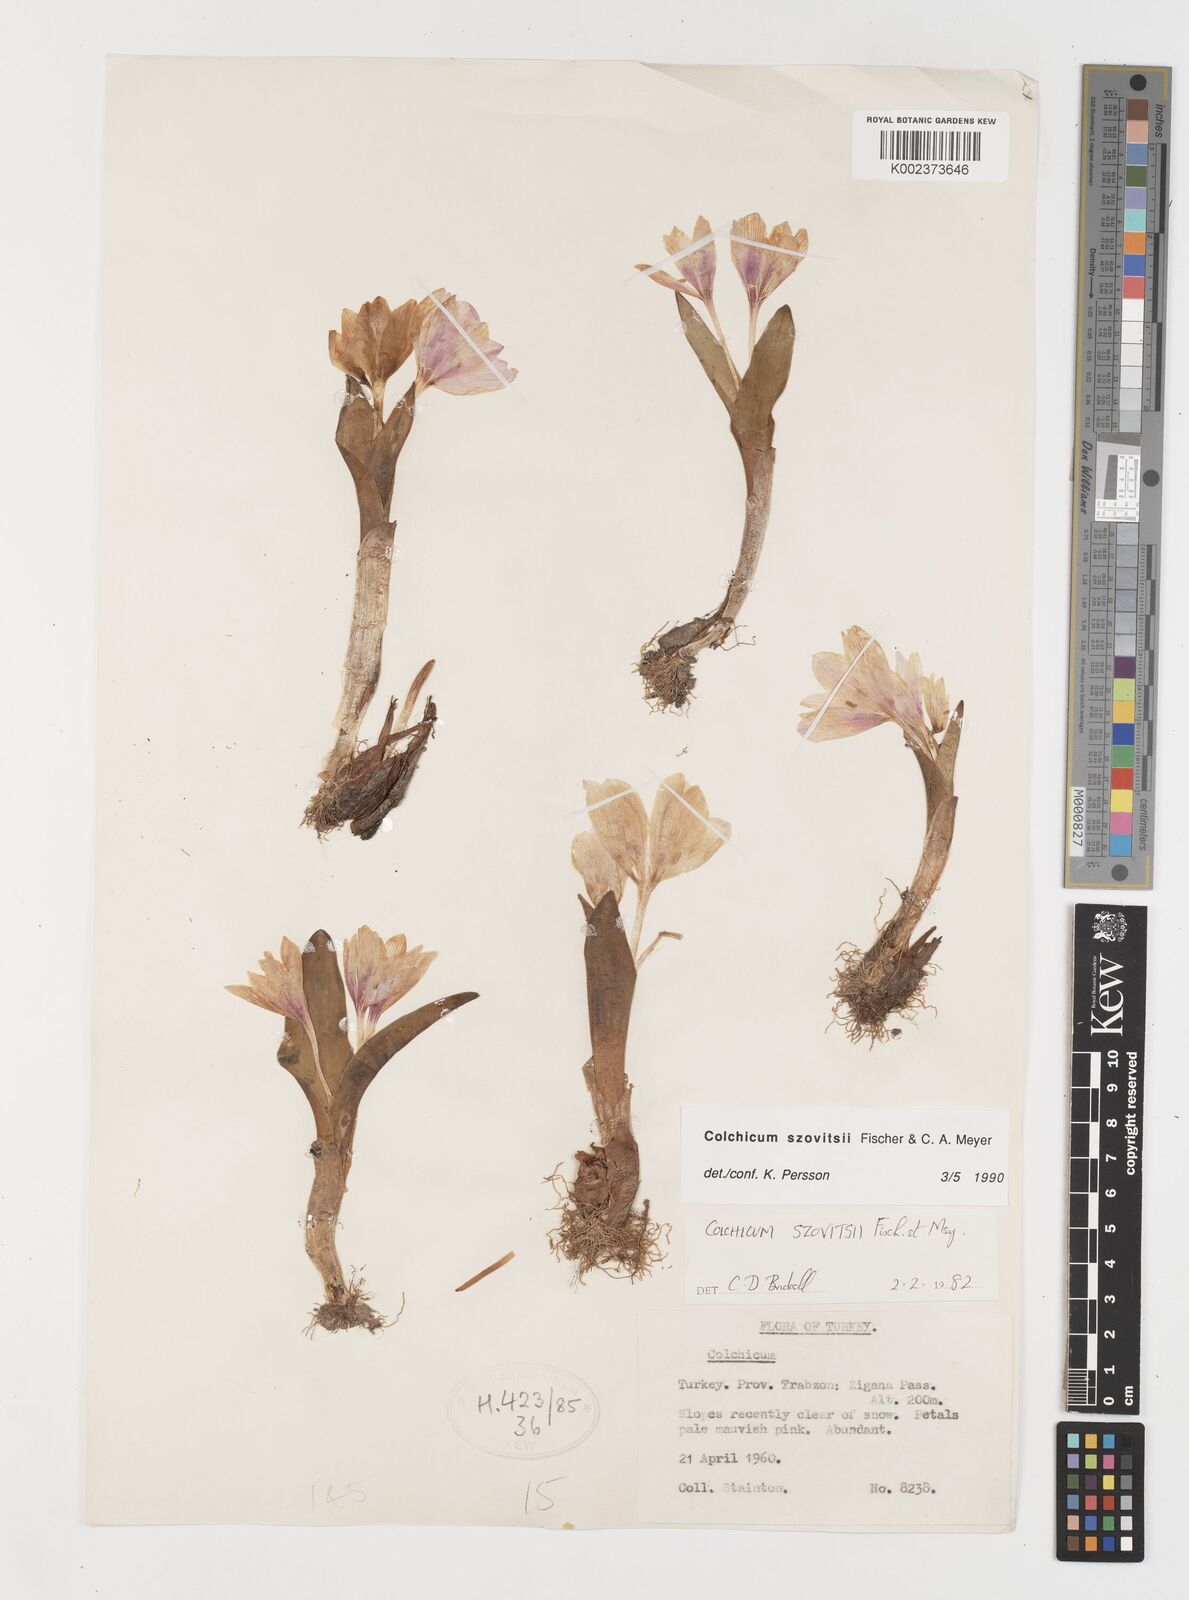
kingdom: Plantae
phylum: Tracheophyta
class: Liliopsida
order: Liliales
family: Colchicaceae
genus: Colchicum
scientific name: Colchicum szovitsii
